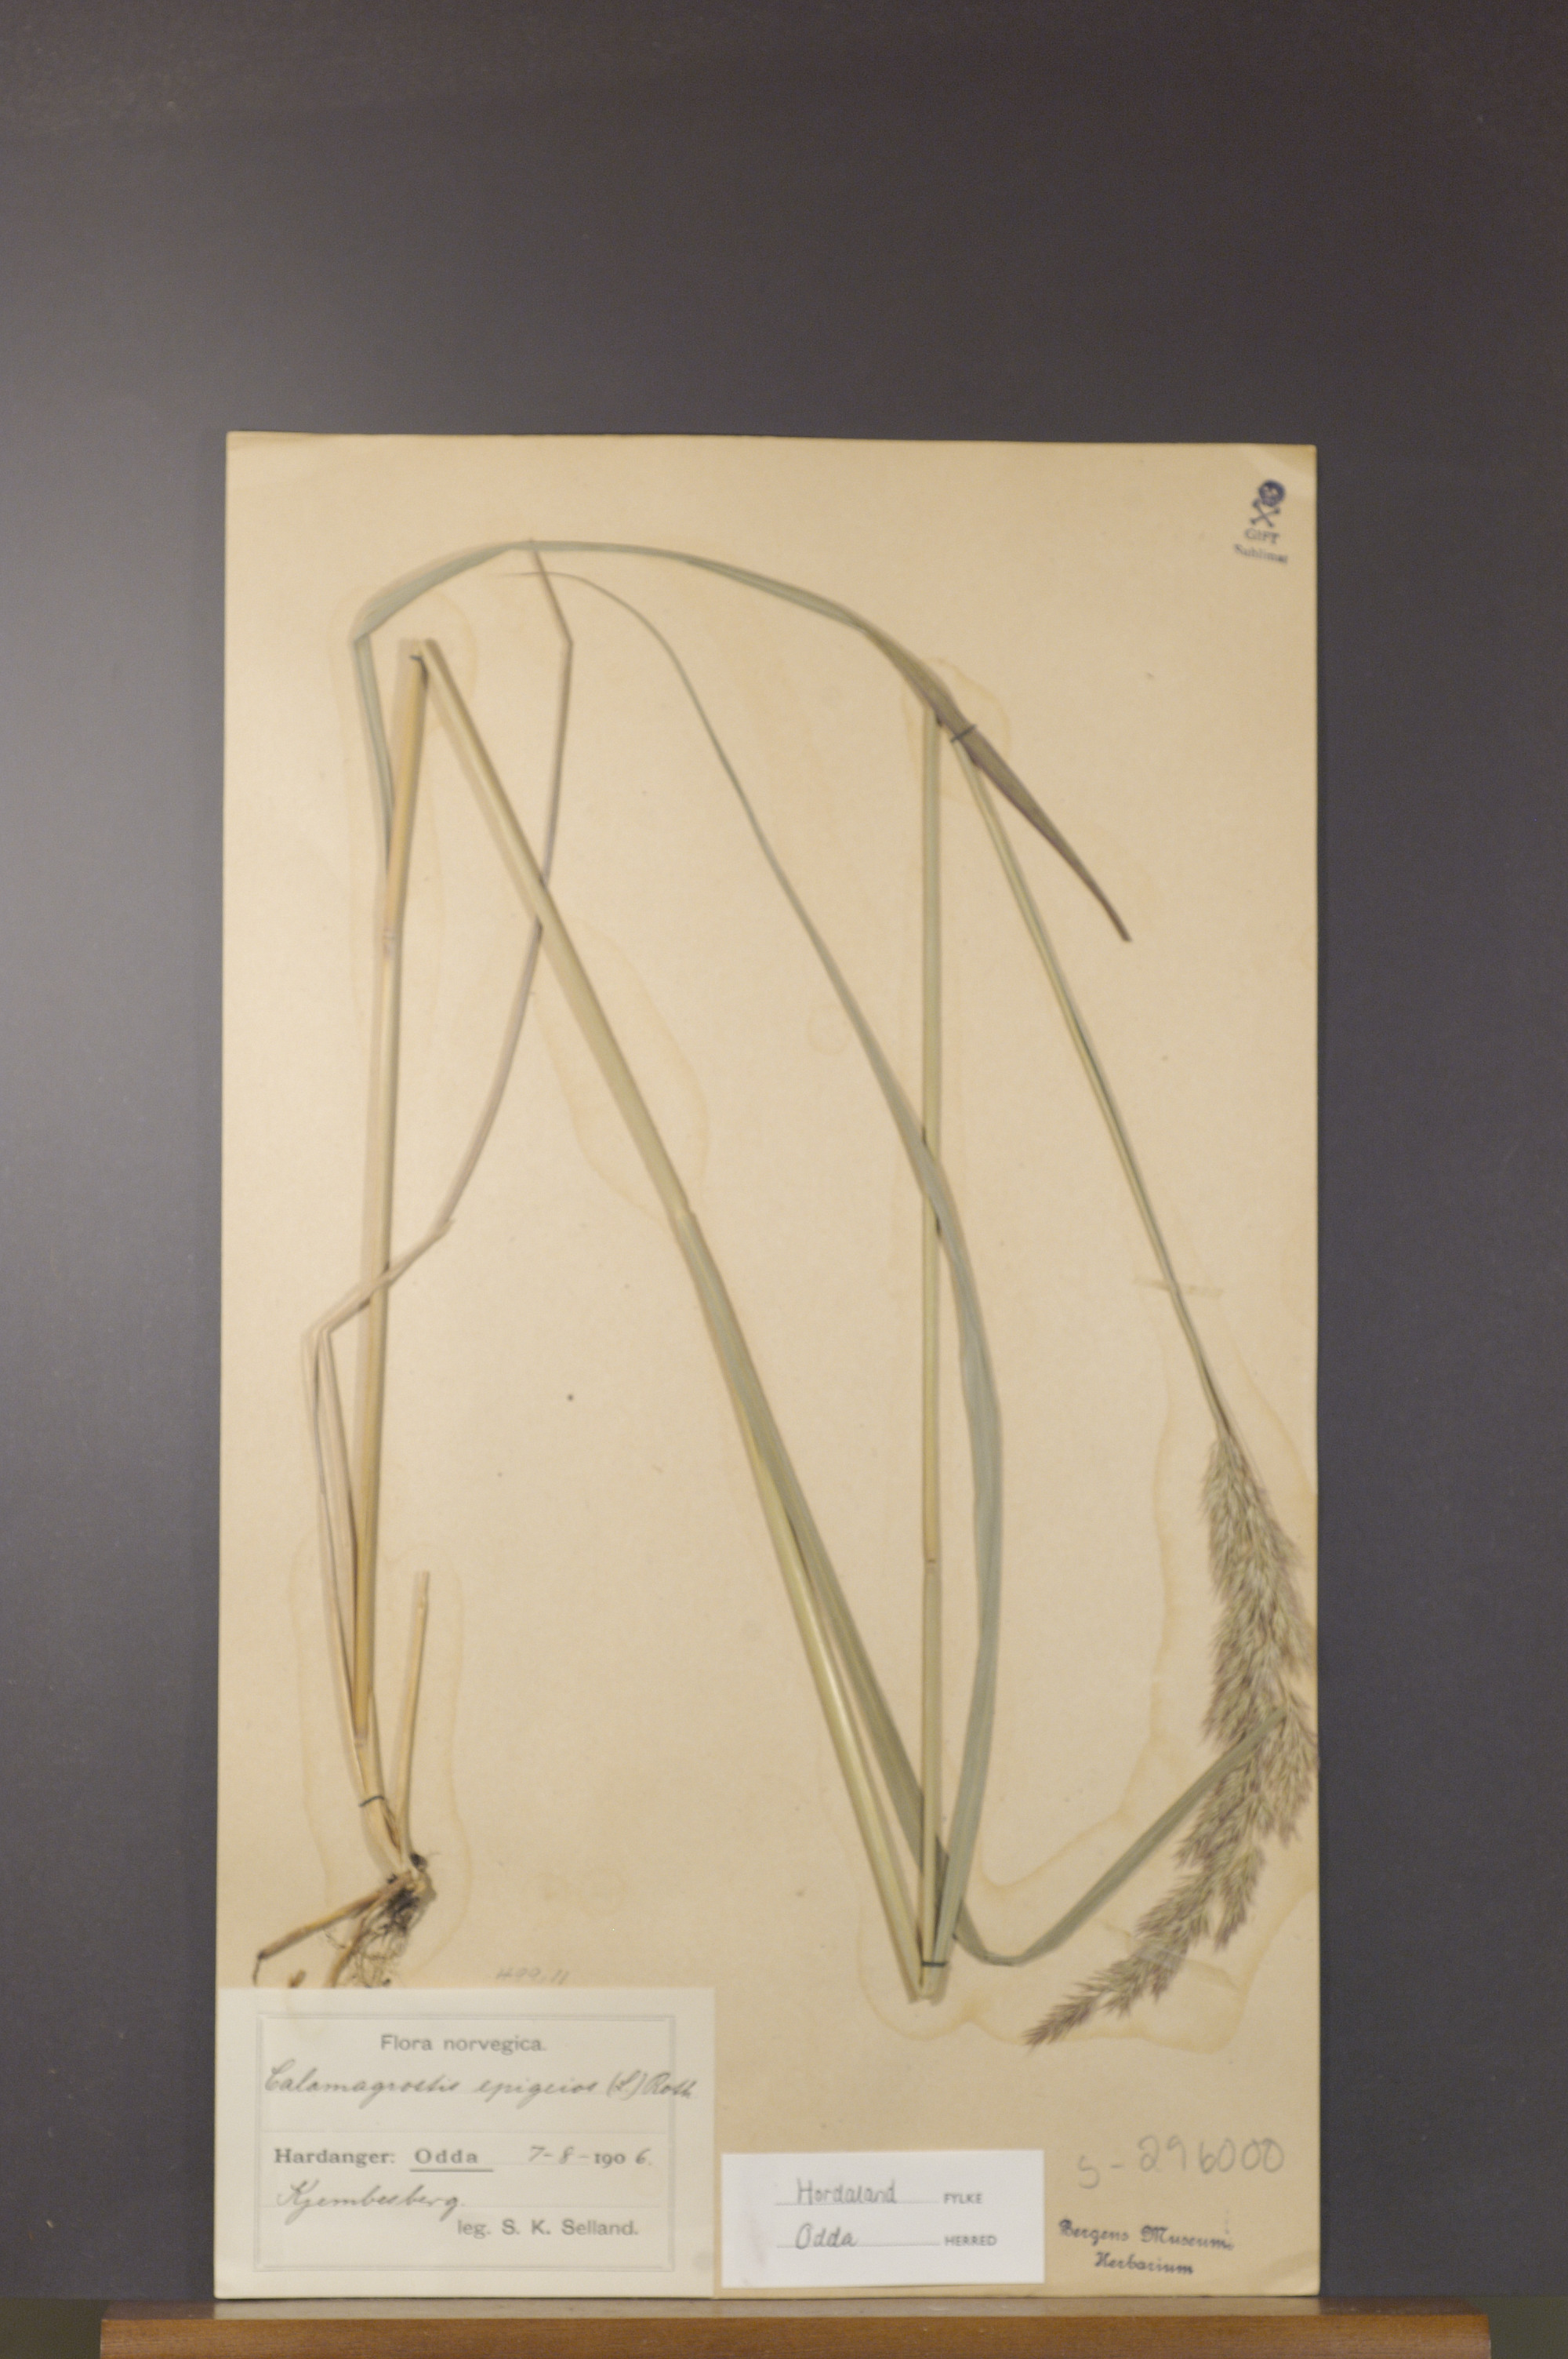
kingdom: Plantae
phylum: Tracheophyta
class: Liliopsida
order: Poales
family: Poaceae
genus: Calamagrostis
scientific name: Calamagrostis epigejos
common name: Wood small-reed
